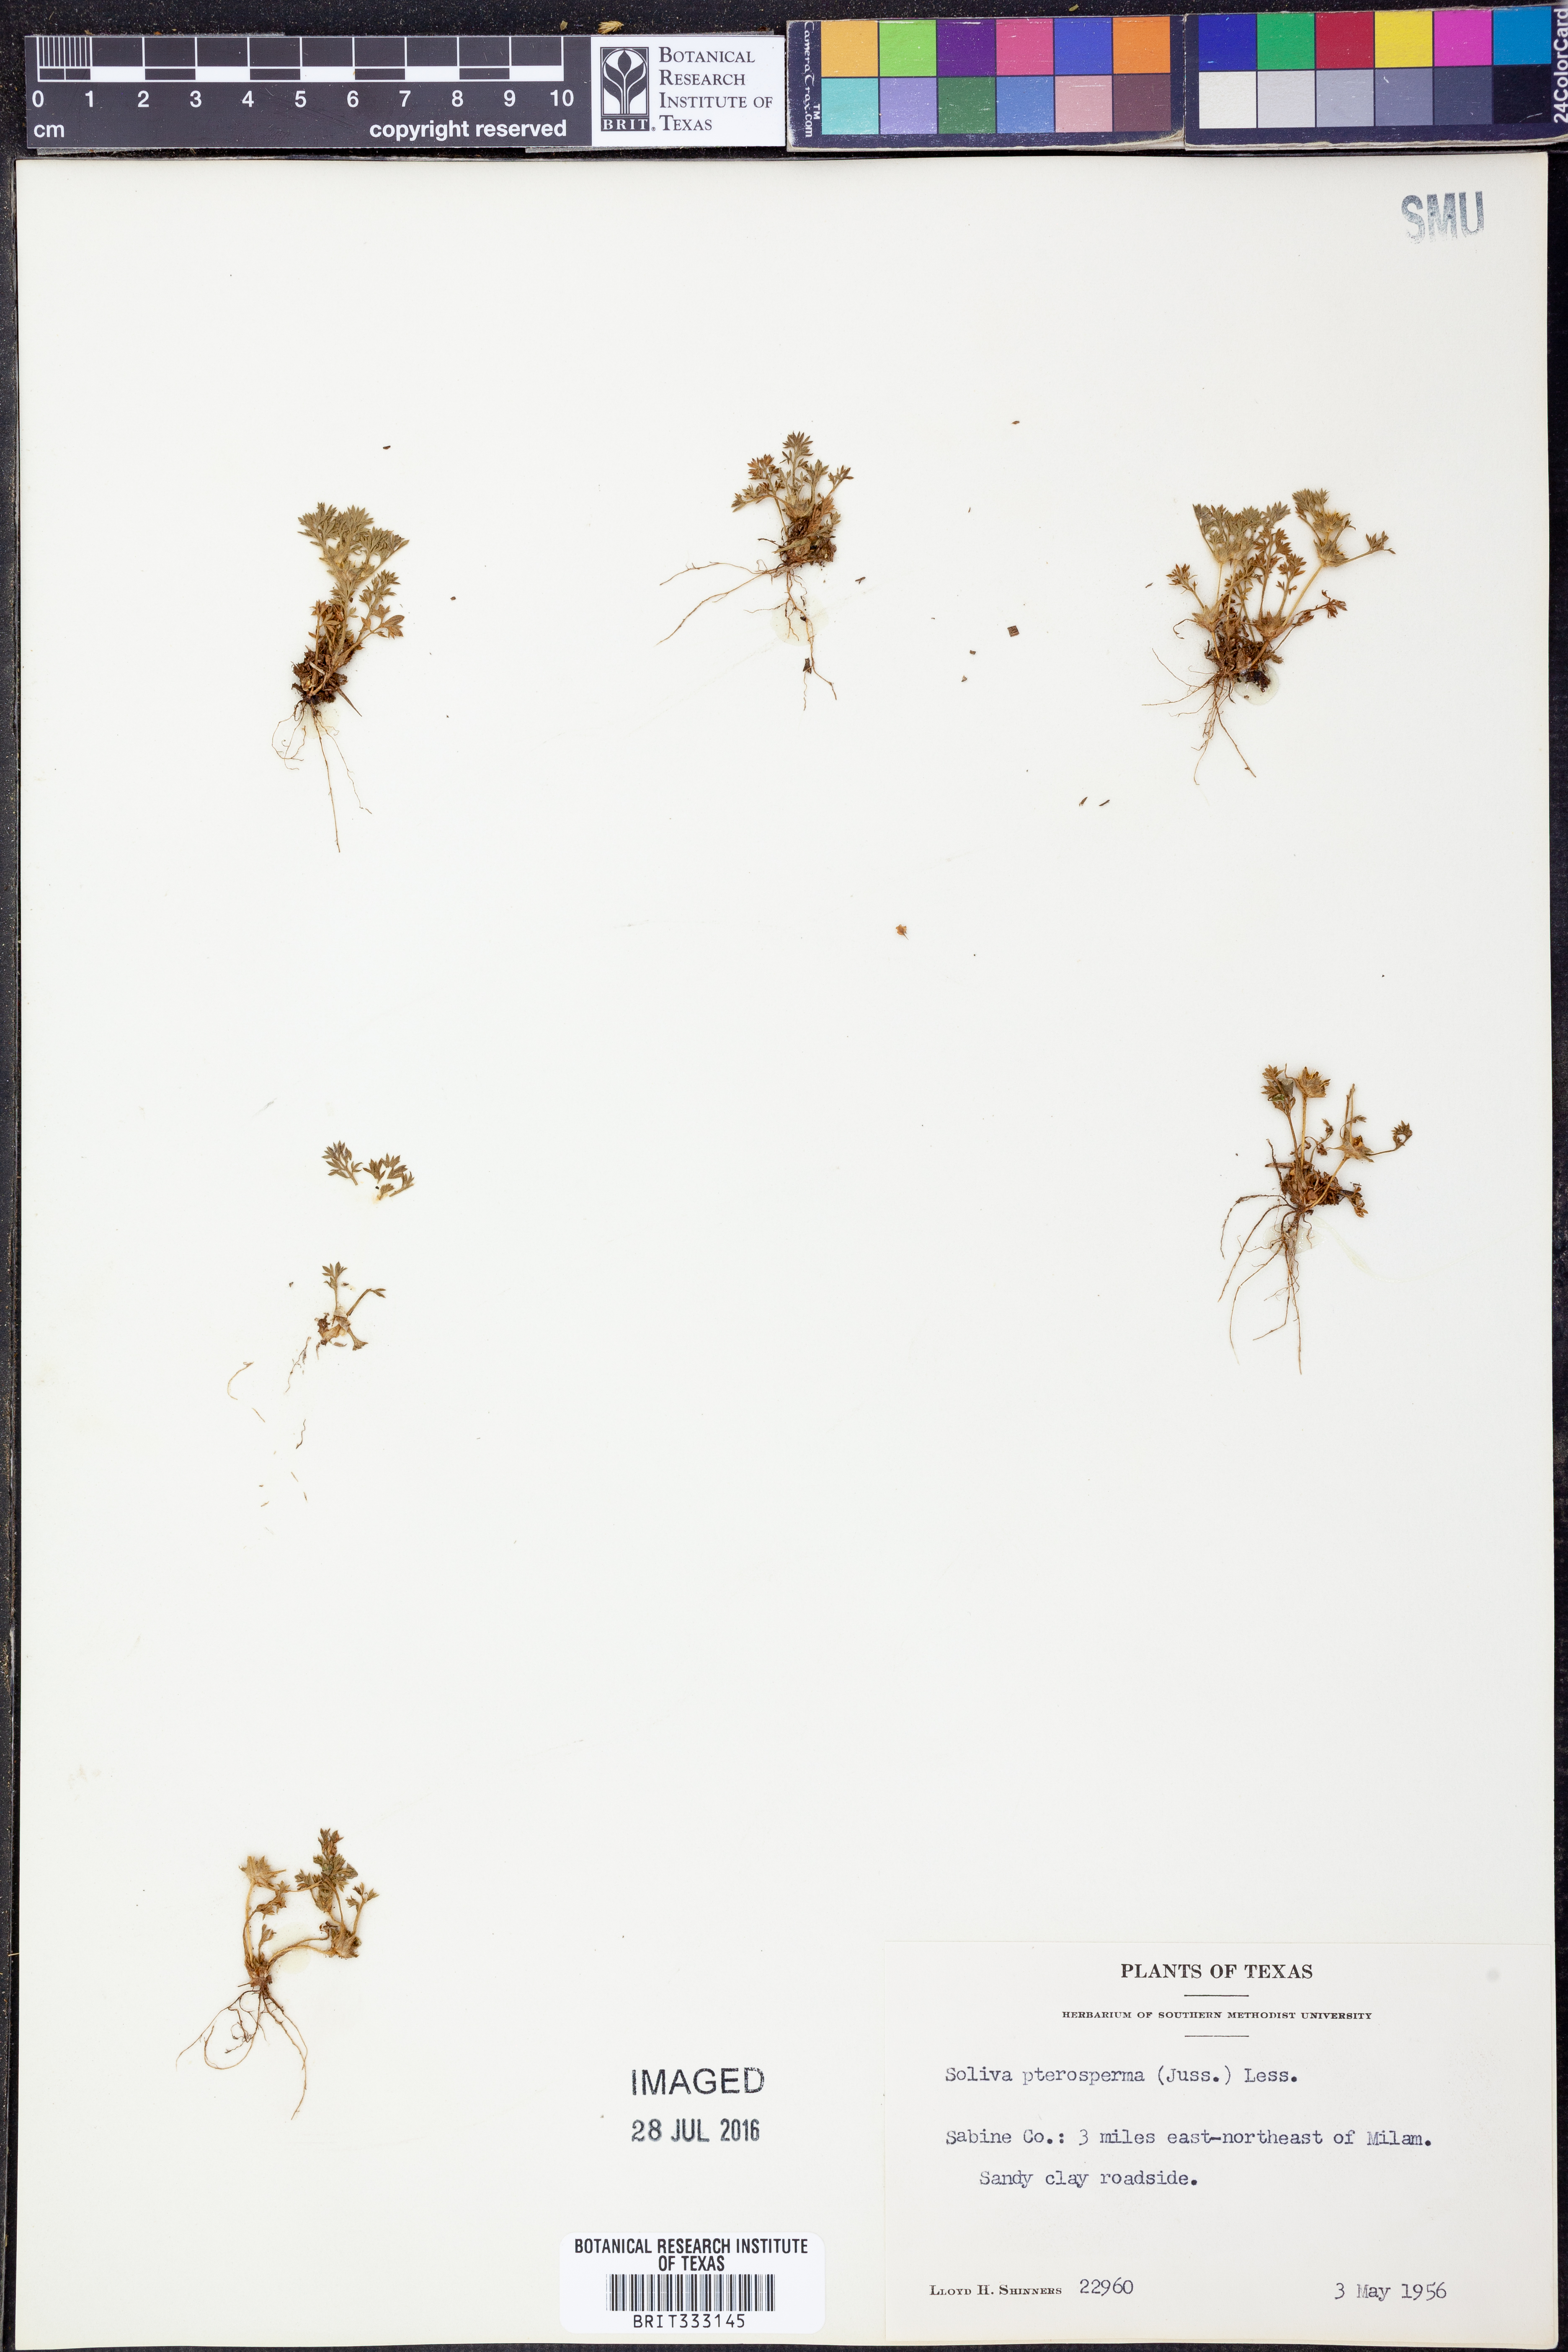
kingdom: Plantae
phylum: Tracheophyta
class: Magnoliopsida
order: Asterales
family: Asteraceae
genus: Soliva
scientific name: Soliva sessilis
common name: Field burrweed
